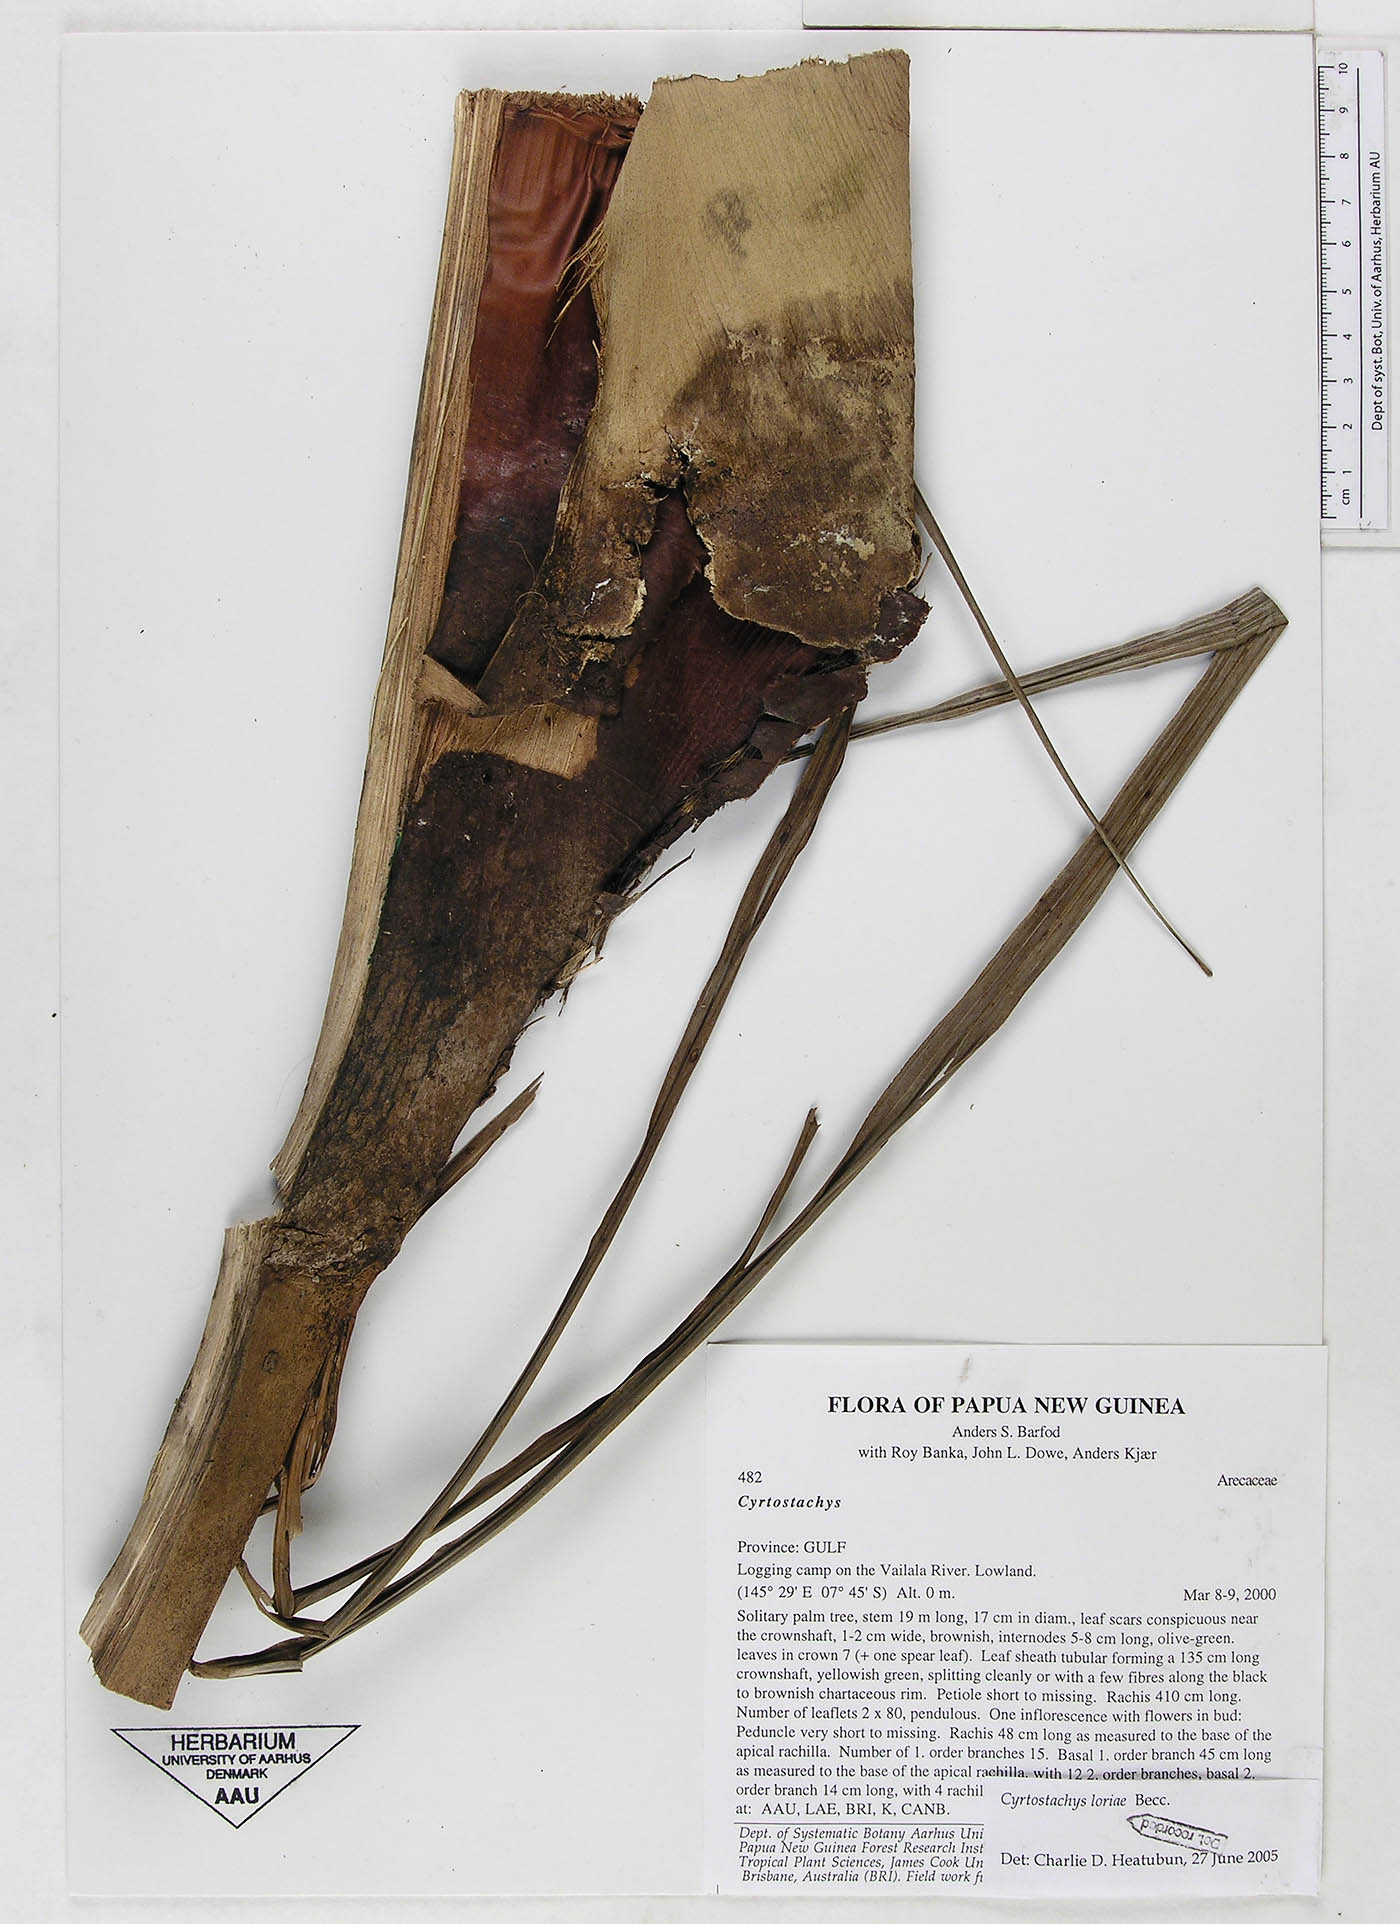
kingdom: Plantae
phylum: Tracheophyta
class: Liliopsida
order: Arecales
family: Arecaceae
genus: Cyrtostachys
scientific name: Cyrtostachys loriae
